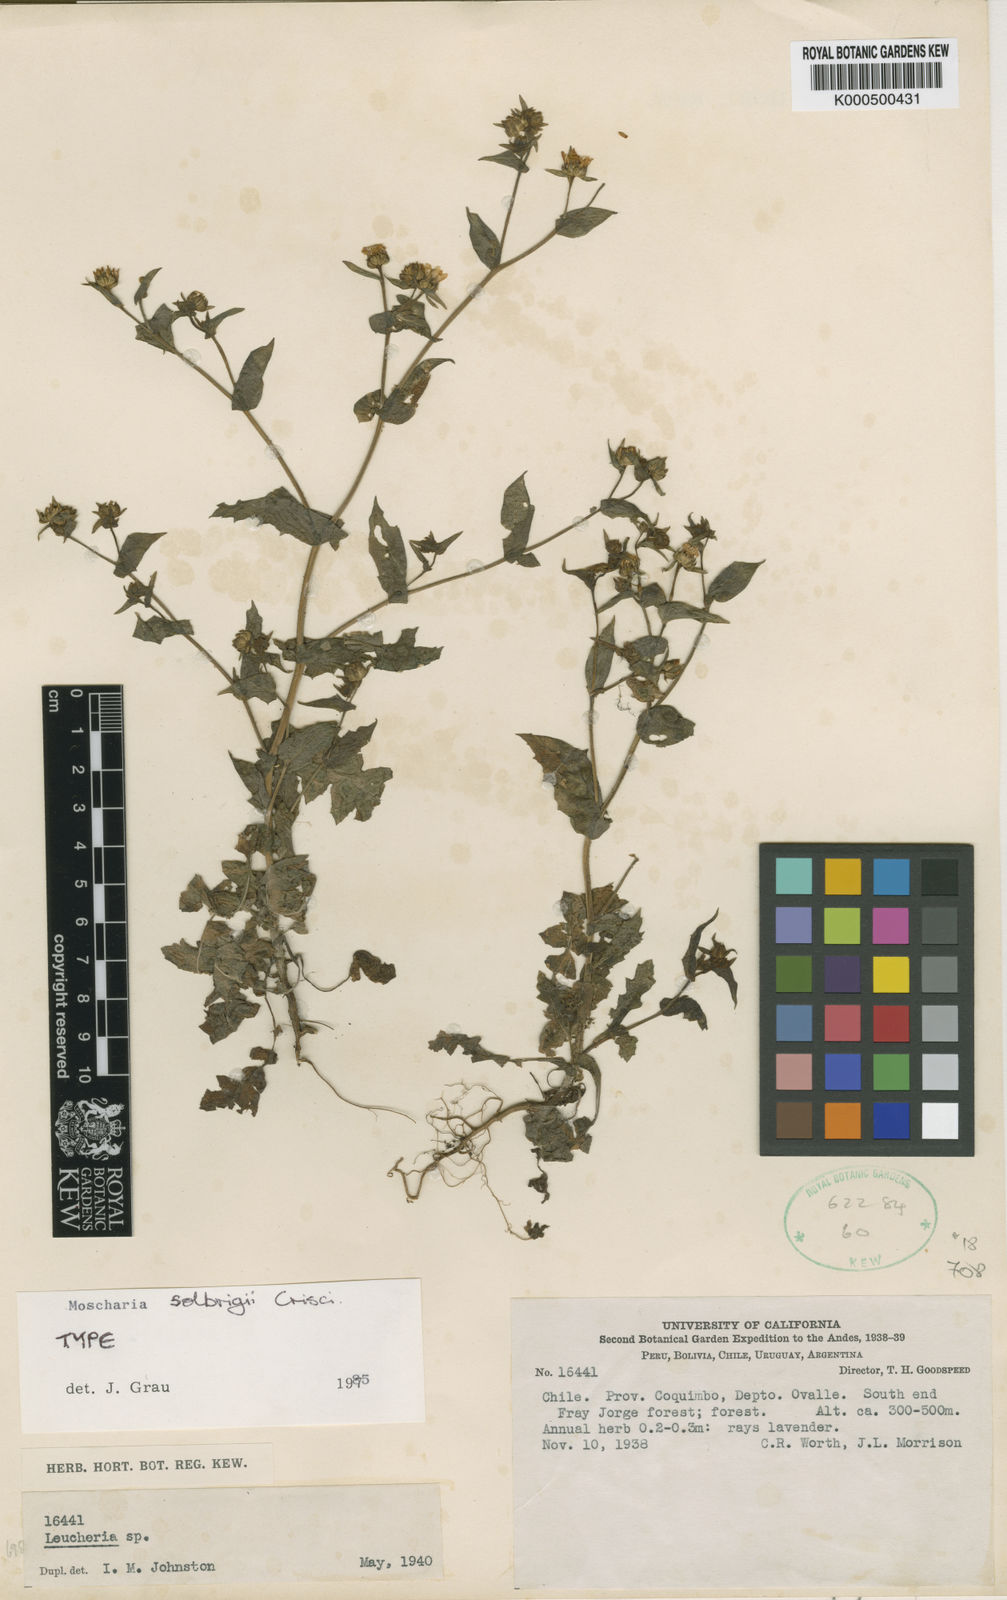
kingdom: Plantae
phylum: Tracheophyta
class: Magnoliopsida
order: Asterales
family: Asteraceae
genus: Moscharia
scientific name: Moscharia solbrigii
